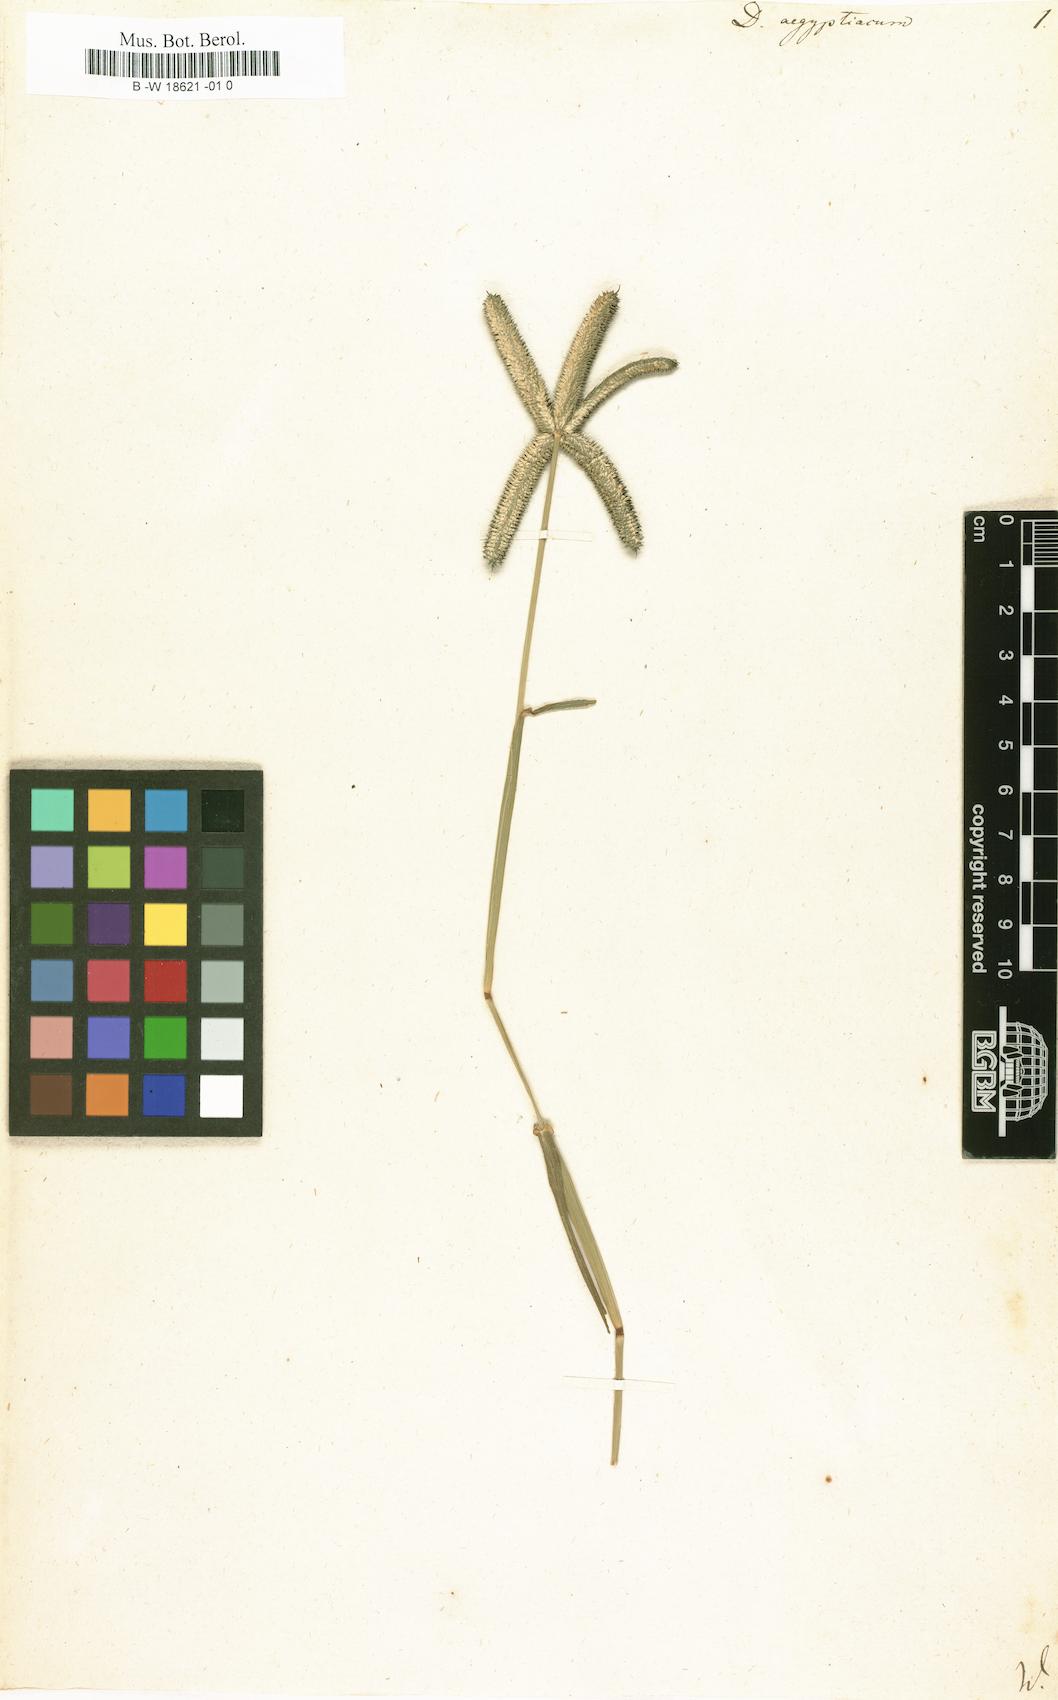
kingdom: Plantae
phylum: Tracheophyta
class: Liliopsida
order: Poales
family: Poaceae
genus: Dactyloctenium
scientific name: Dactyloctenium aegyptium
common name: Egyptian grass
